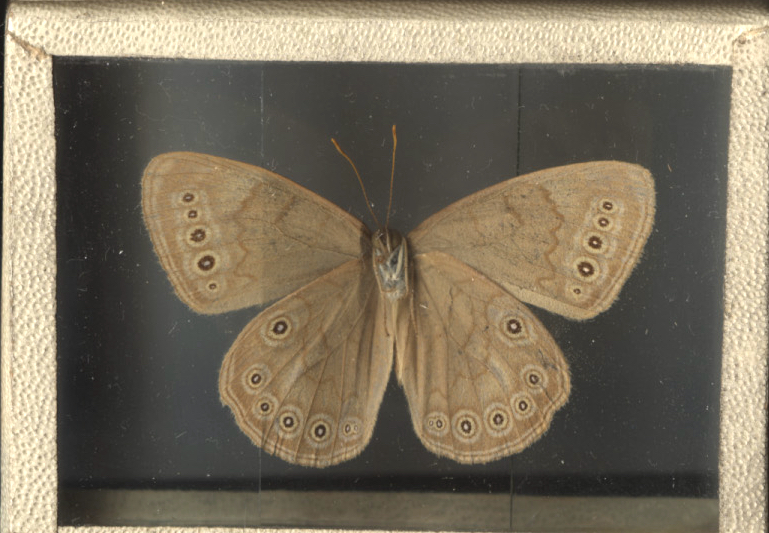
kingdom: Animalia
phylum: Arthropoda
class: Insecta
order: Lepidoptera
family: Nymphalidae
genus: Lethe
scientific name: Lethe eurydice
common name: Eyed Brown
